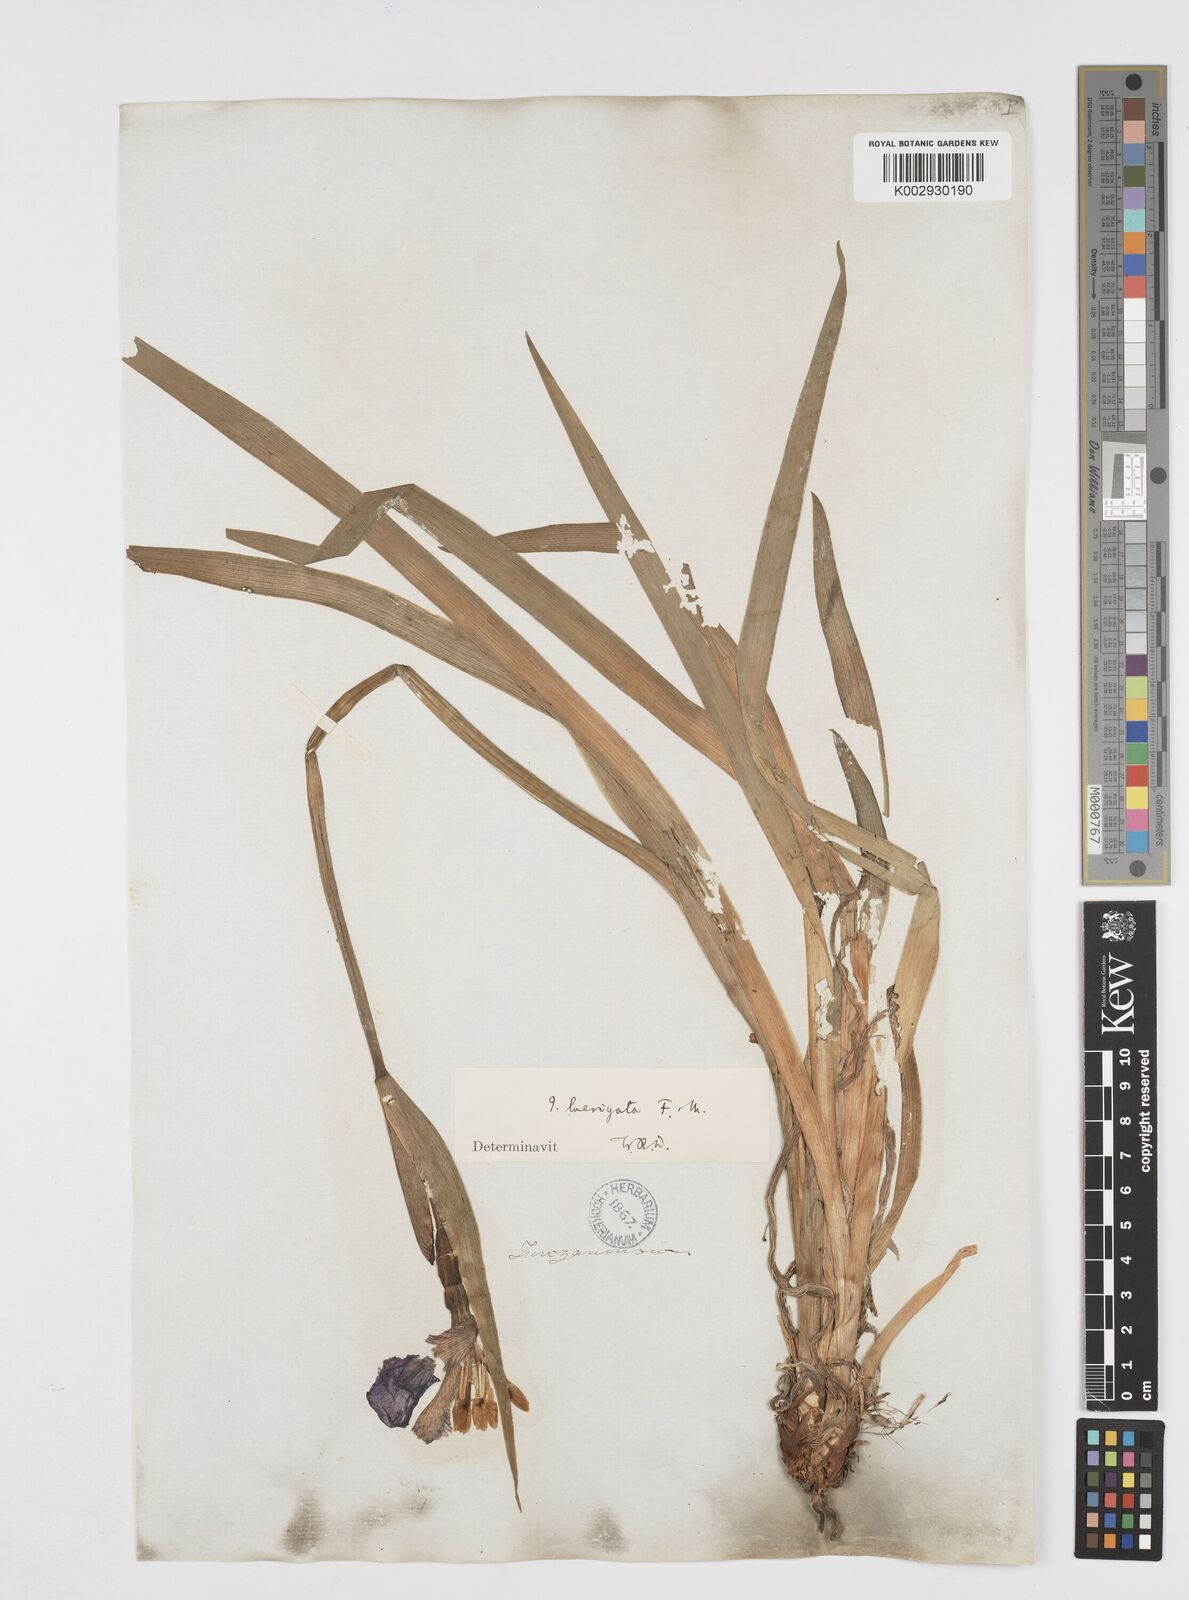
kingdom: Plantae
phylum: Tracheophyta
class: Liliopsida
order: Asparagales
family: Iridaceae
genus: Iris
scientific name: Iris laevigata
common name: Japanese iris
